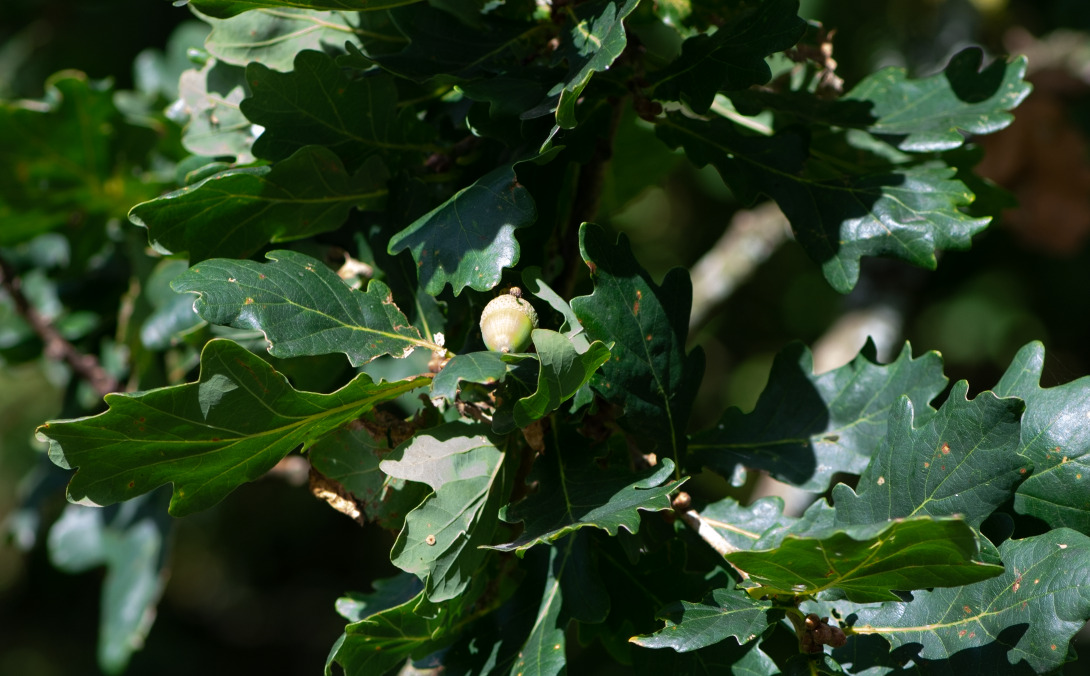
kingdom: Plantae
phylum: Tracheophyta
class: Magnoliopsida
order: Fagales
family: Fagaceae
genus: Quercus
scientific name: Quercus robur
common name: Stilk-eg/almindelig eg
